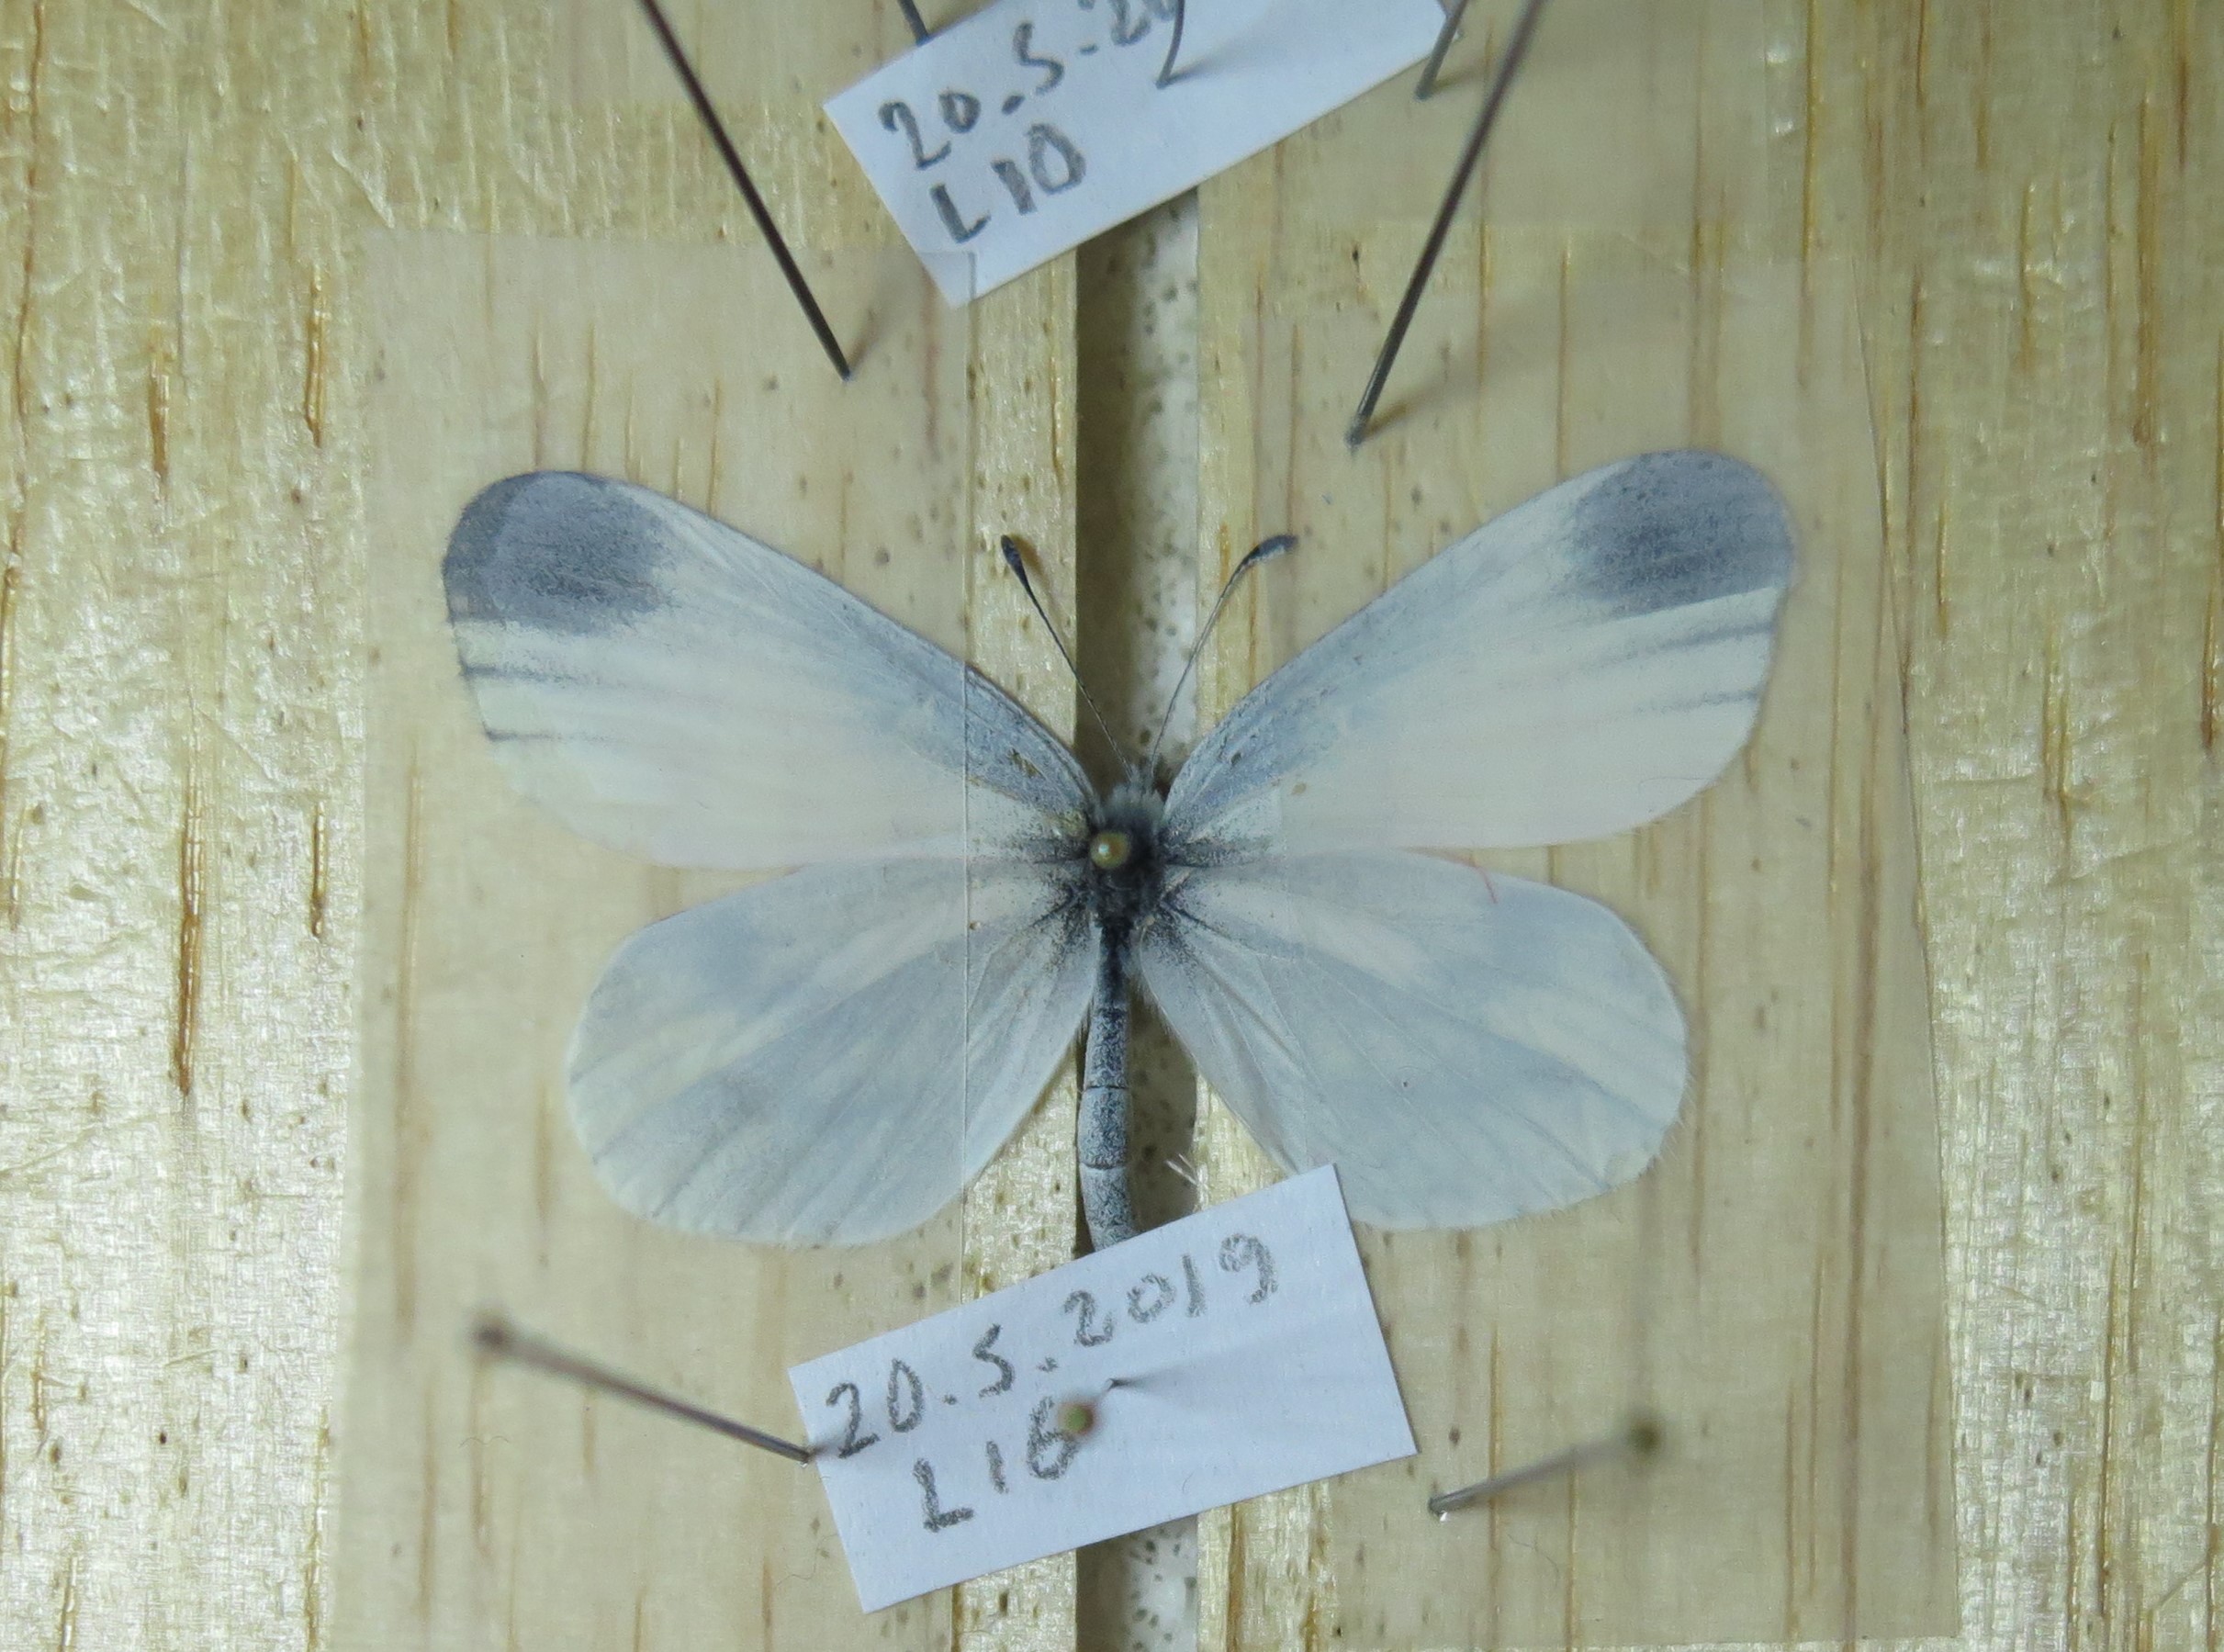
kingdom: Animalia
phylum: Arthropoda
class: Insecta
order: Lepidoptera
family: Pieridae
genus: Leptidea
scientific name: Leptidea sinapis
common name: Wood white
